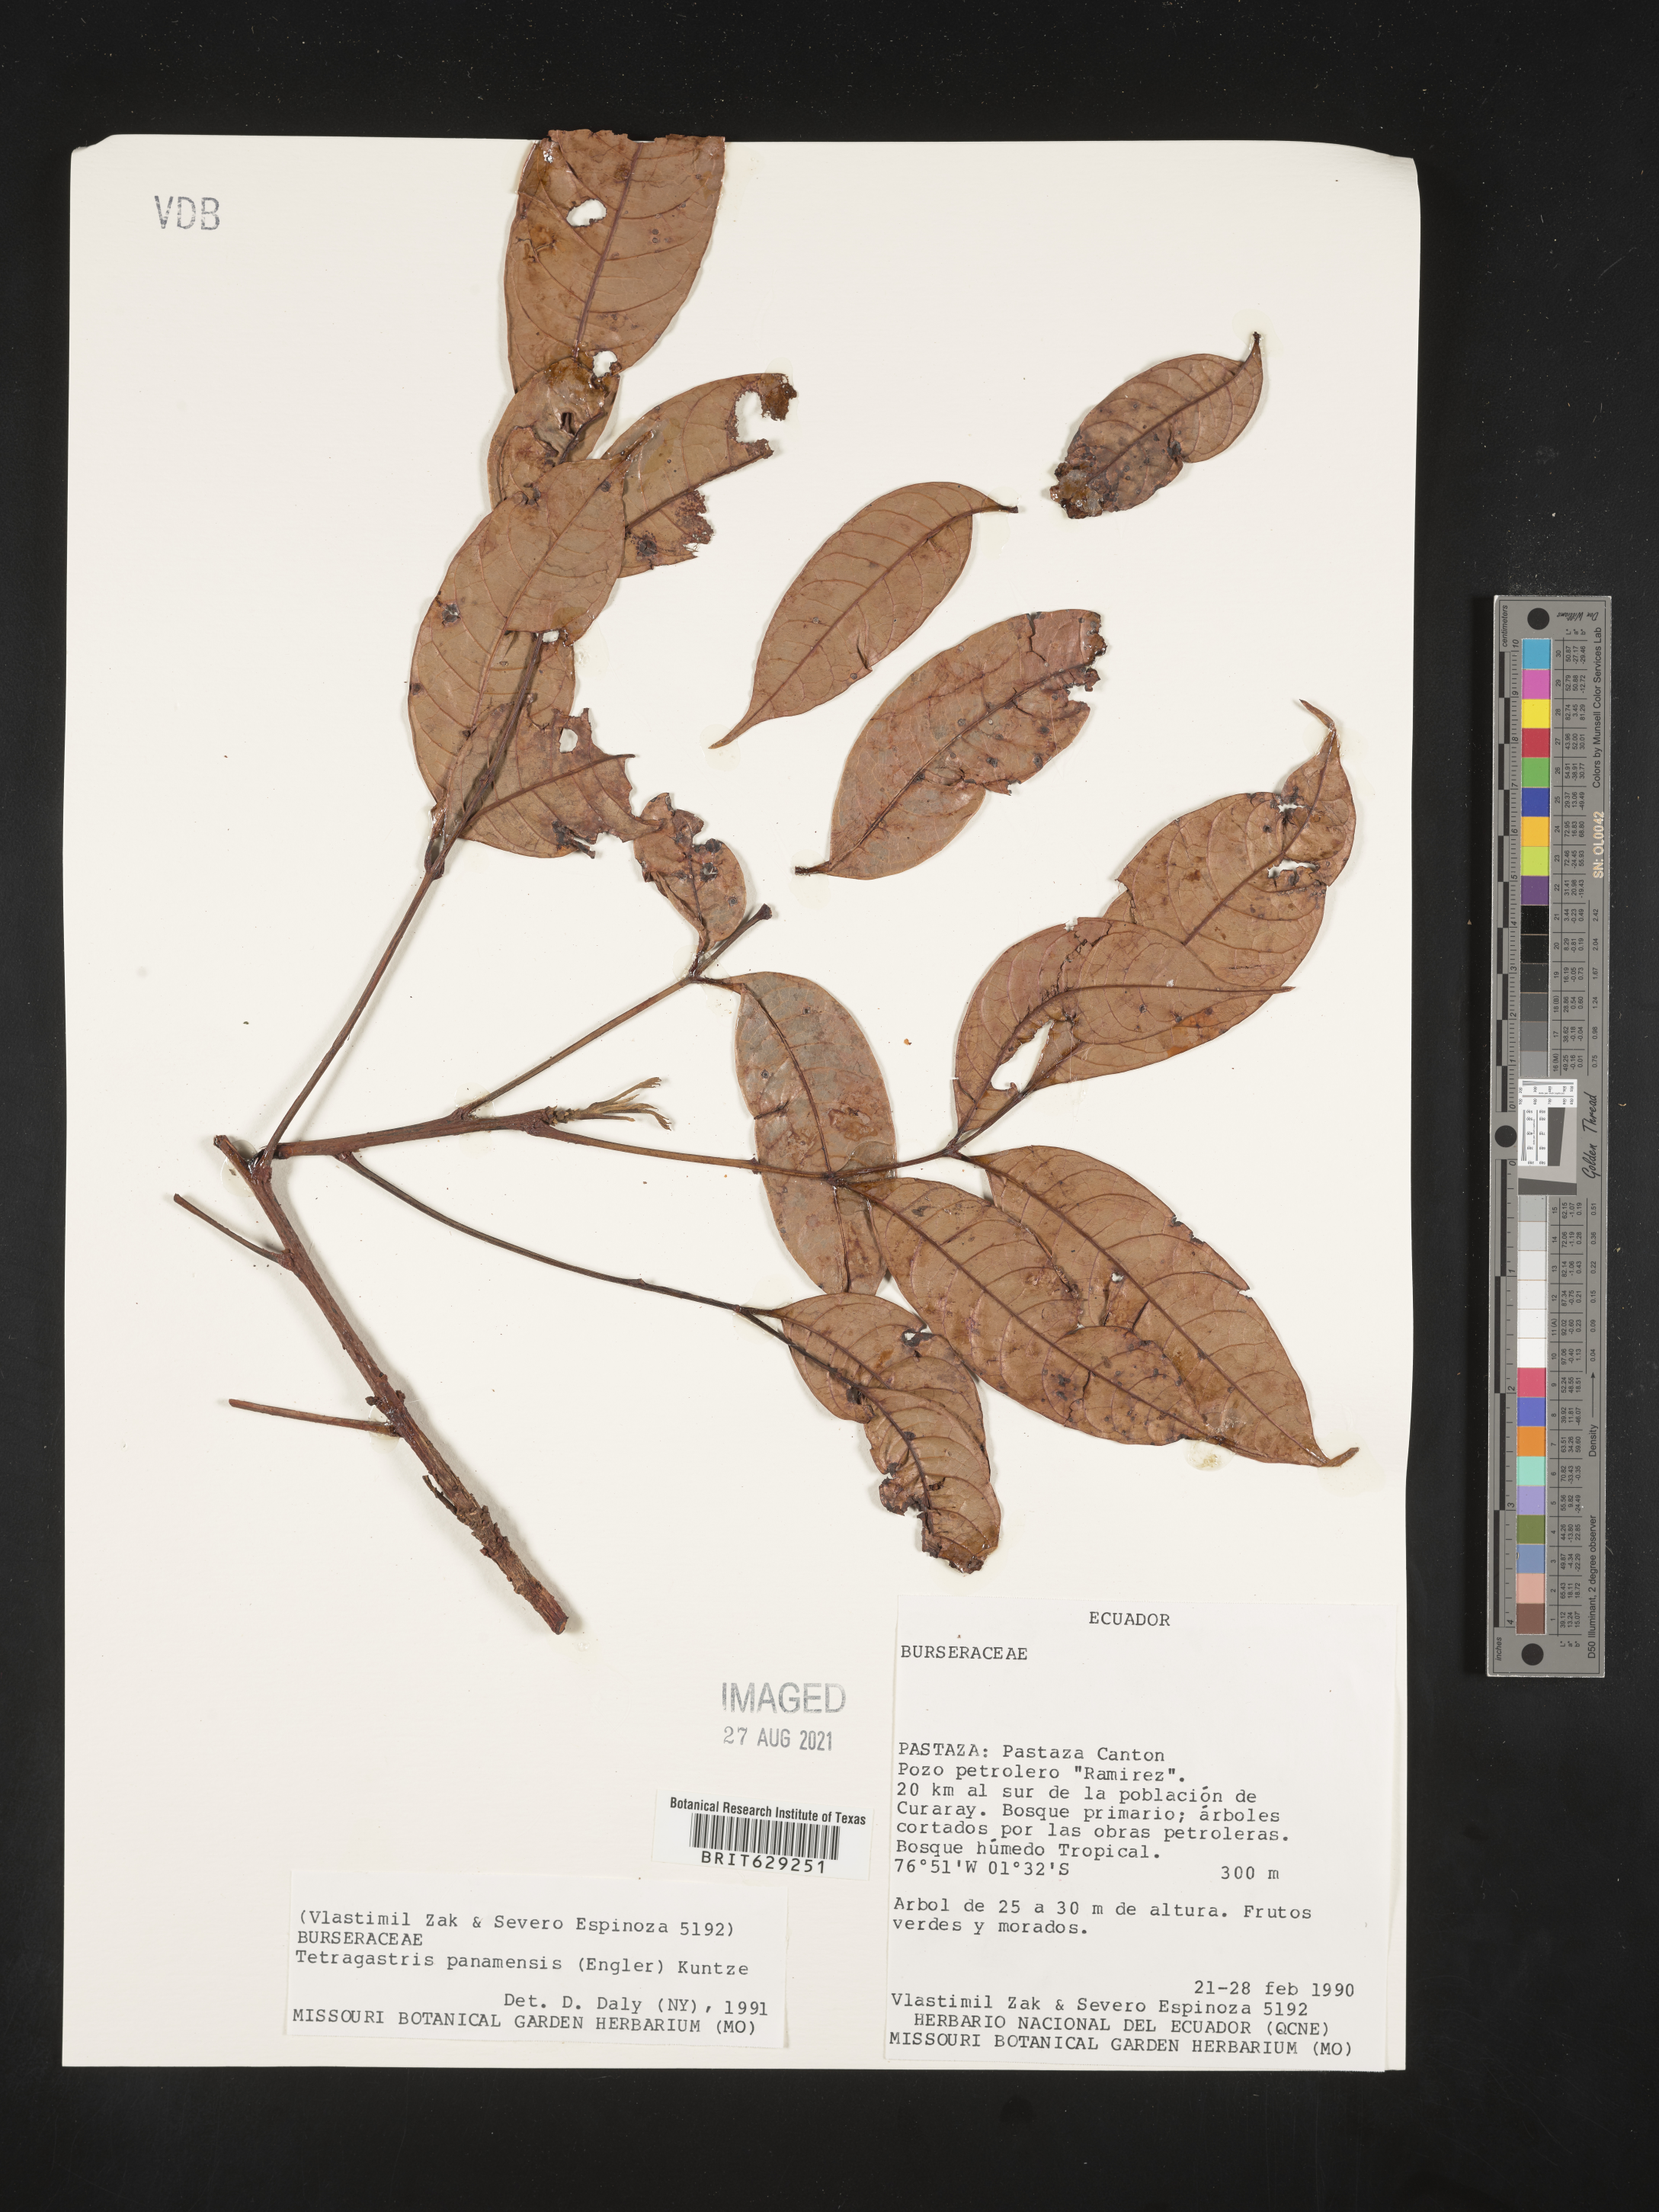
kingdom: Plantae
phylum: Tracheophyta
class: Magnoliopsida
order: Sapindales
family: Burseraceae
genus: Tetragastris
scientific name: Tetragastris panamensis
